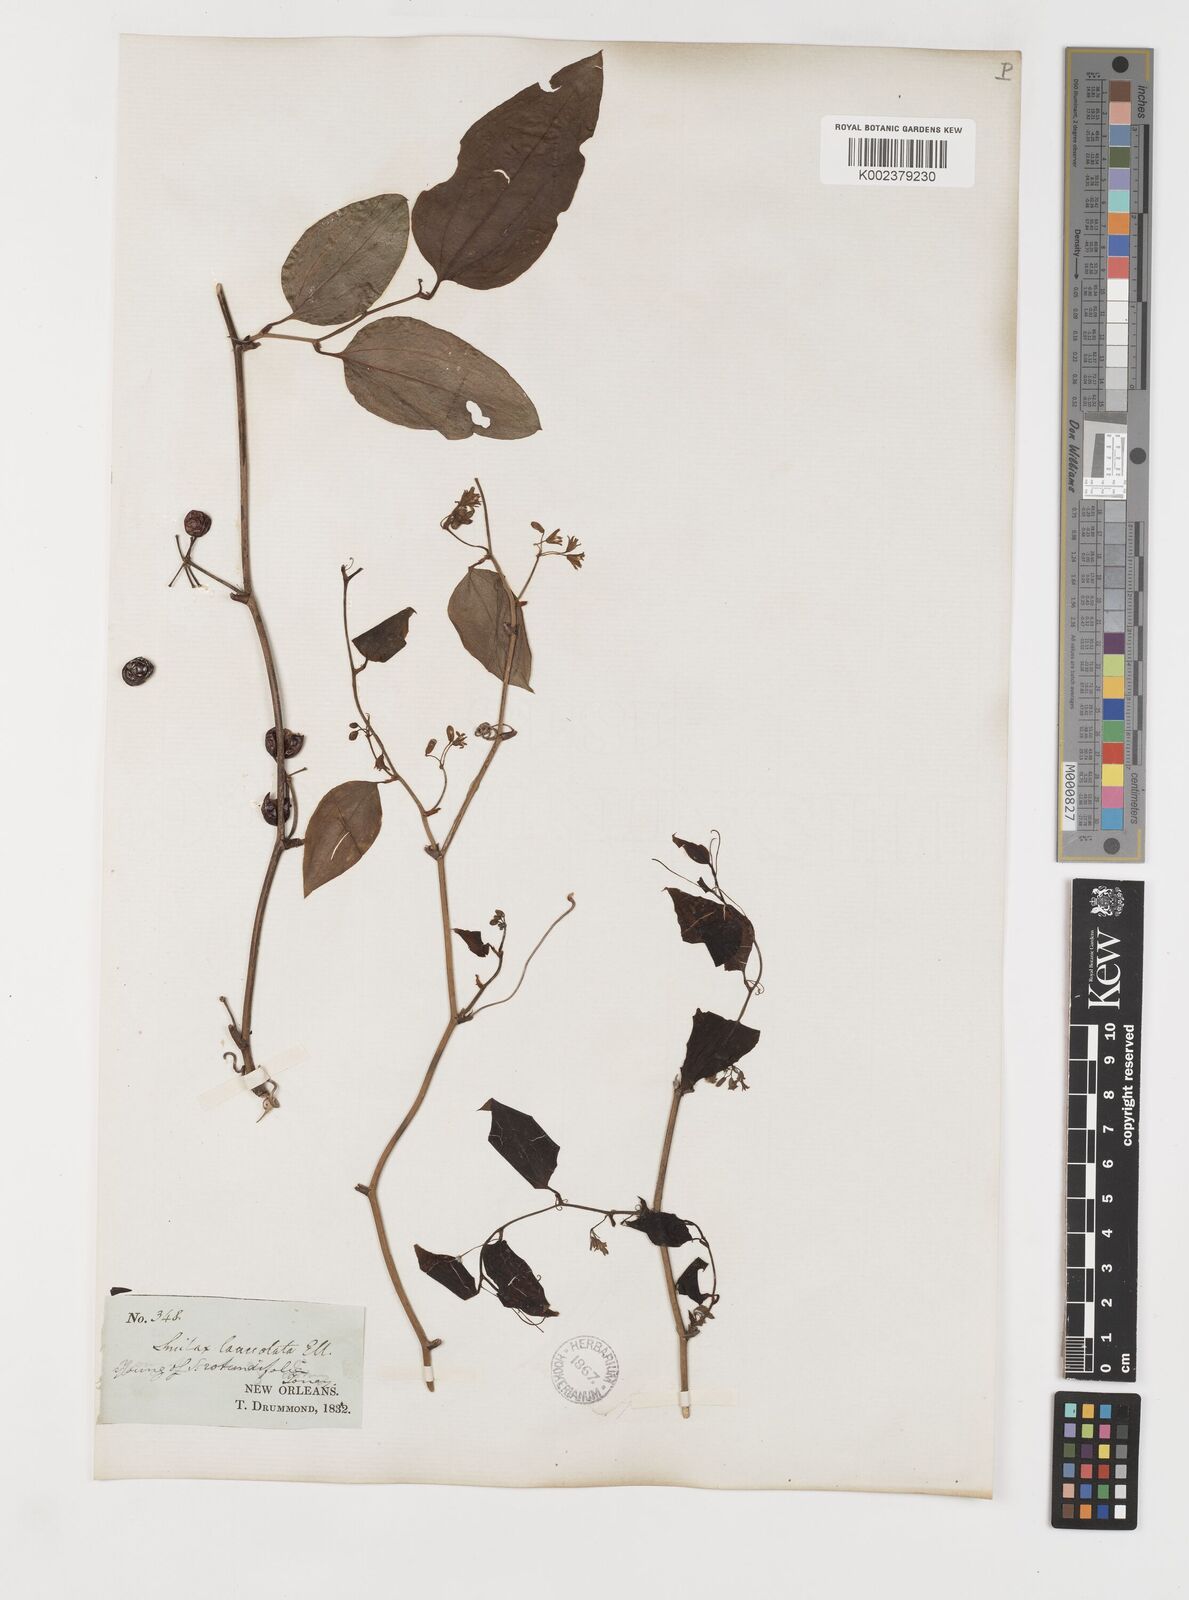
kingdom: Plantae
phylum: Tracheophyta
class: Liliopsida
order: Liliales
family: Smilacaceae
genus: Smilax
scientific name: Smilax rotundifolia
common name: Bullbriar
